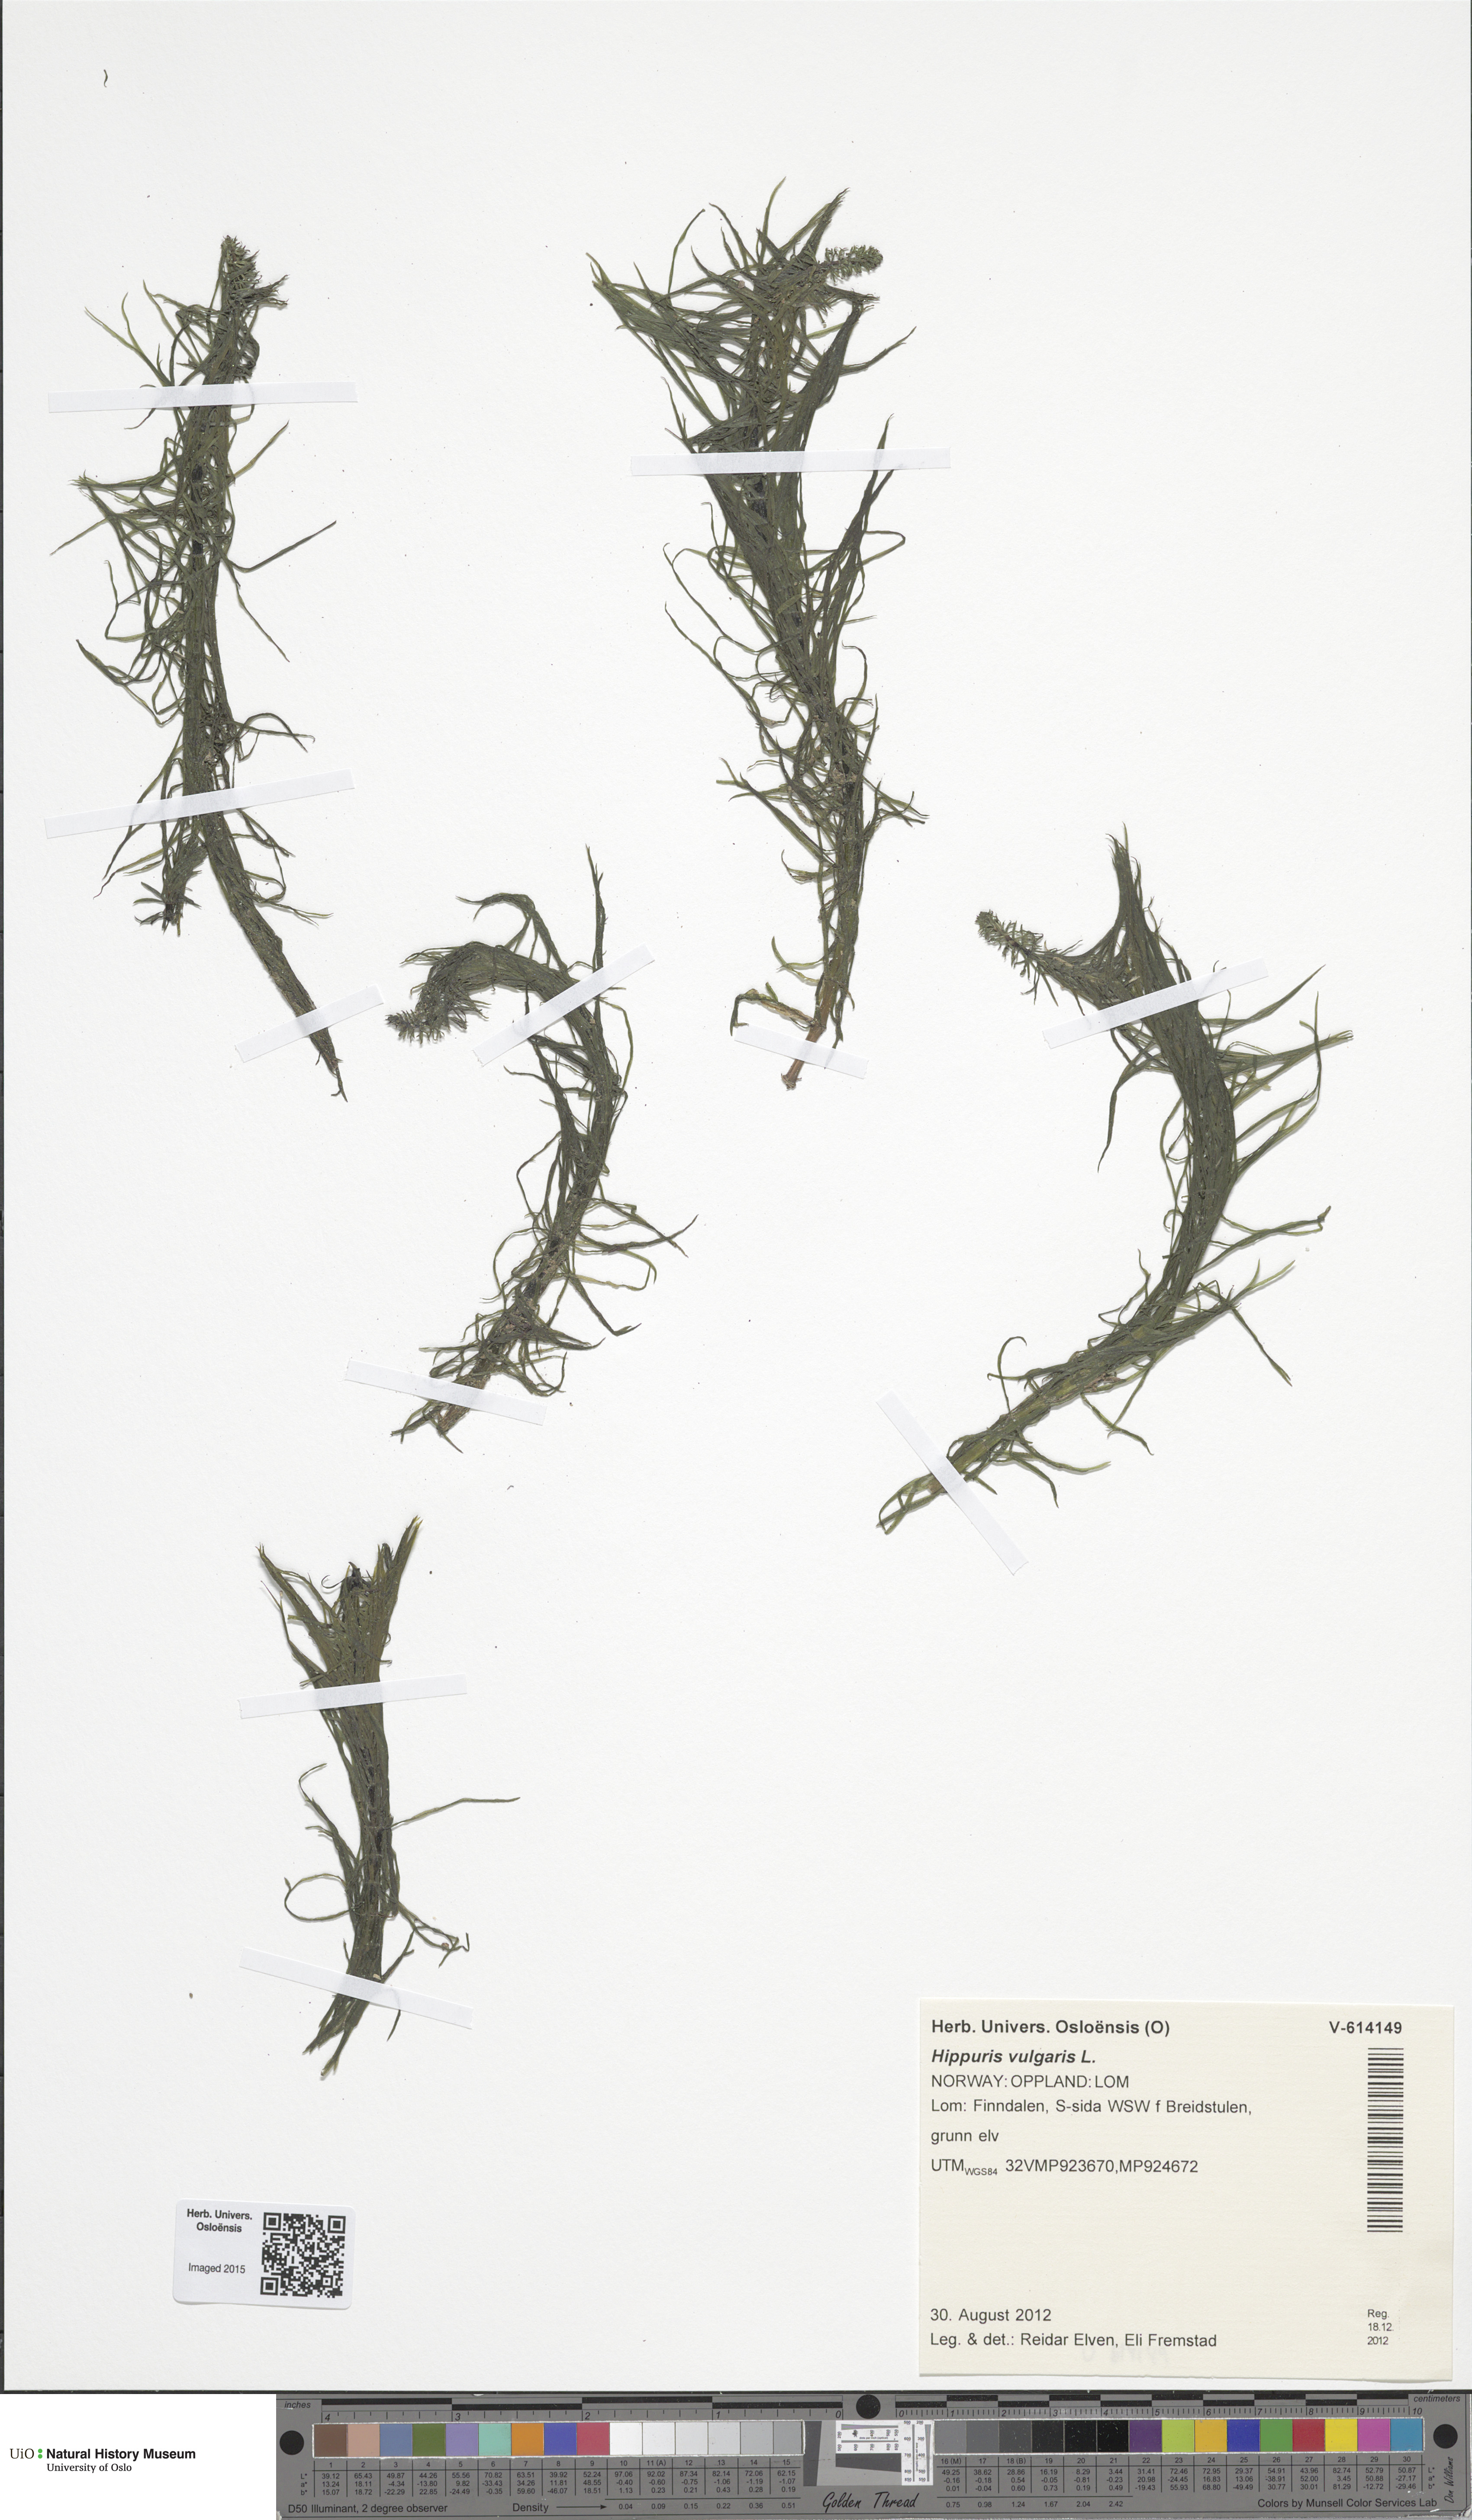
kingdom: Plantae
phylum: Tracheophyta
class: Magnoliopsida
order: Lamiales
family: Plantaginaceae
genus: Hippuris
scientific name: Hippuris vulgaris
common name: Mare's-tail
